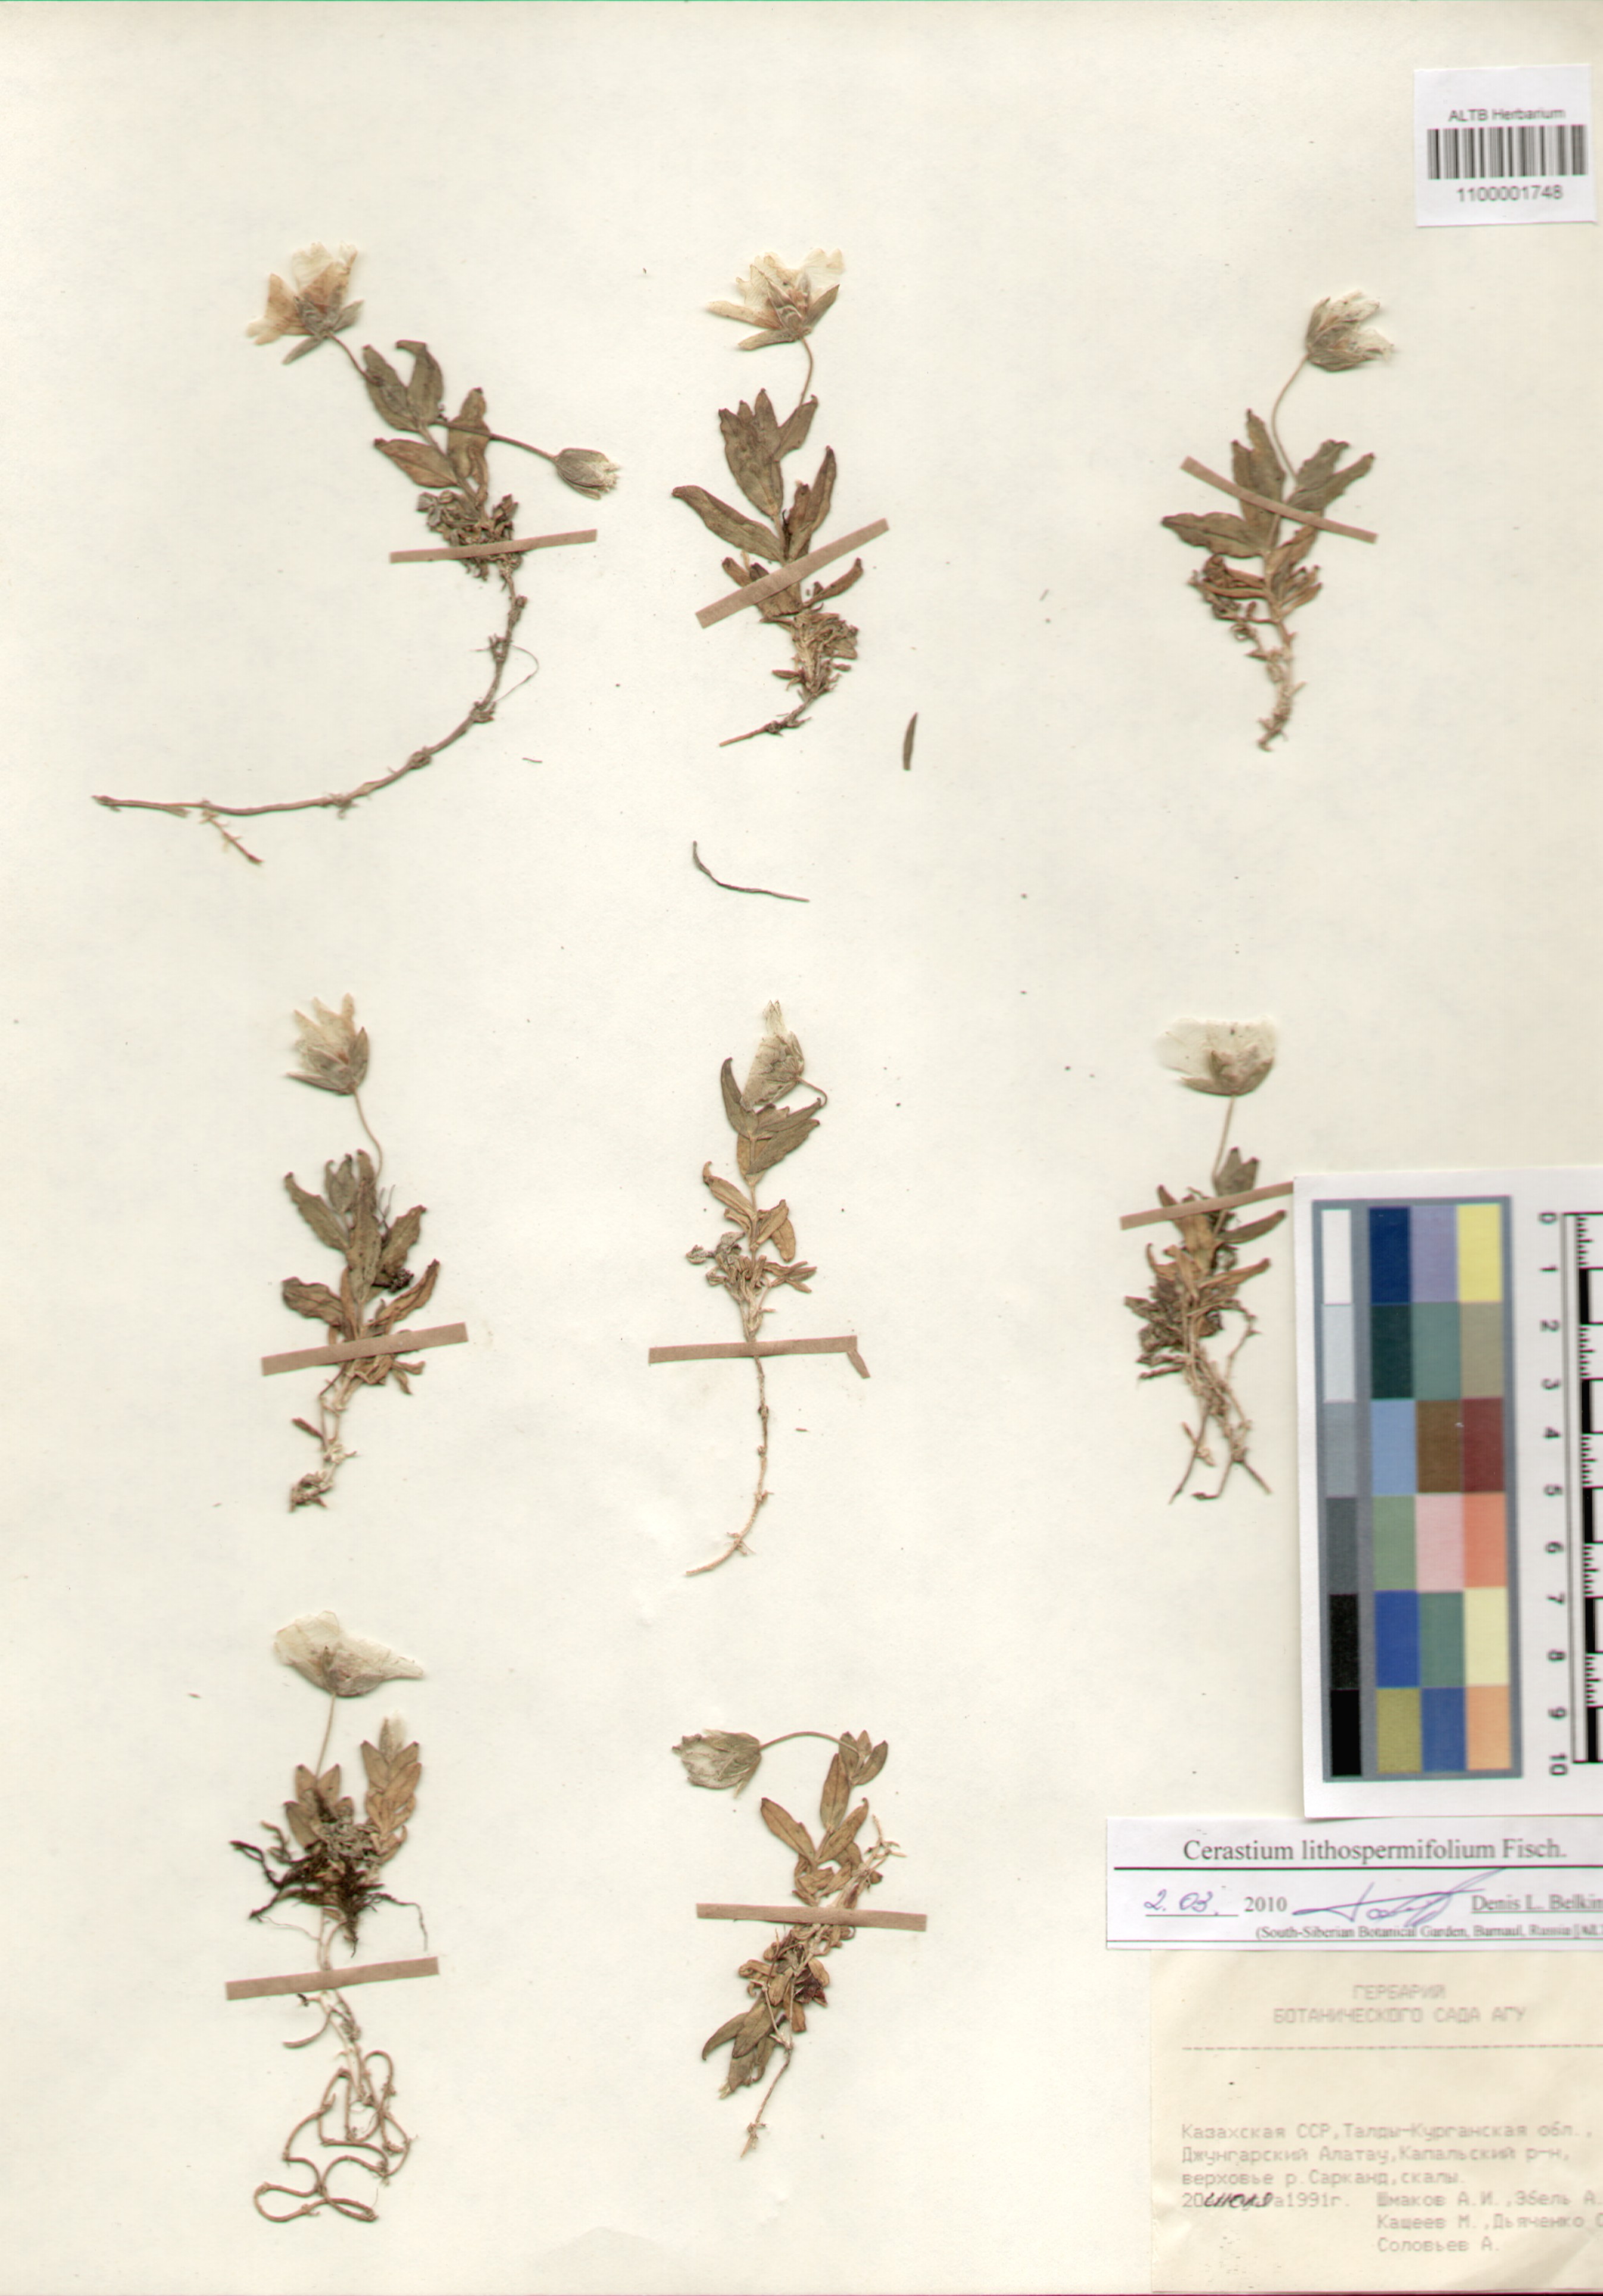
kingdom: Plantae
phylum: Tracheophyta
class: Magnoliopsida
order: Caryophyllales
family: Caryophyllaceae
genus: Cerastium
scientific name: Cerastium lithospermifolium
